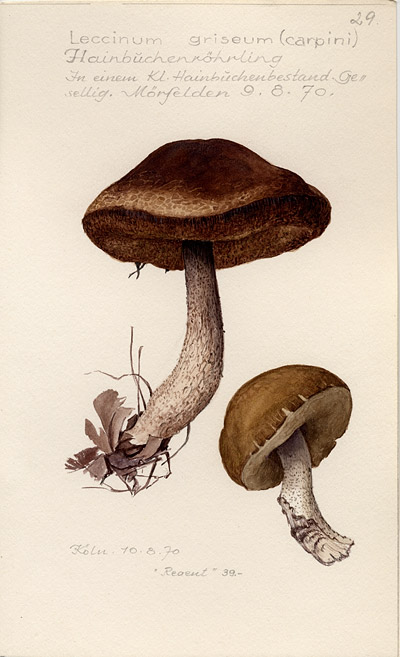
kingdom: Fungi
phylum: Basidiomycota
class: Agaricomycetes
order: Boletales
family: Boletaceae
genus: Leccinellum
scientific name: Leccinellum pseudoscabrum
